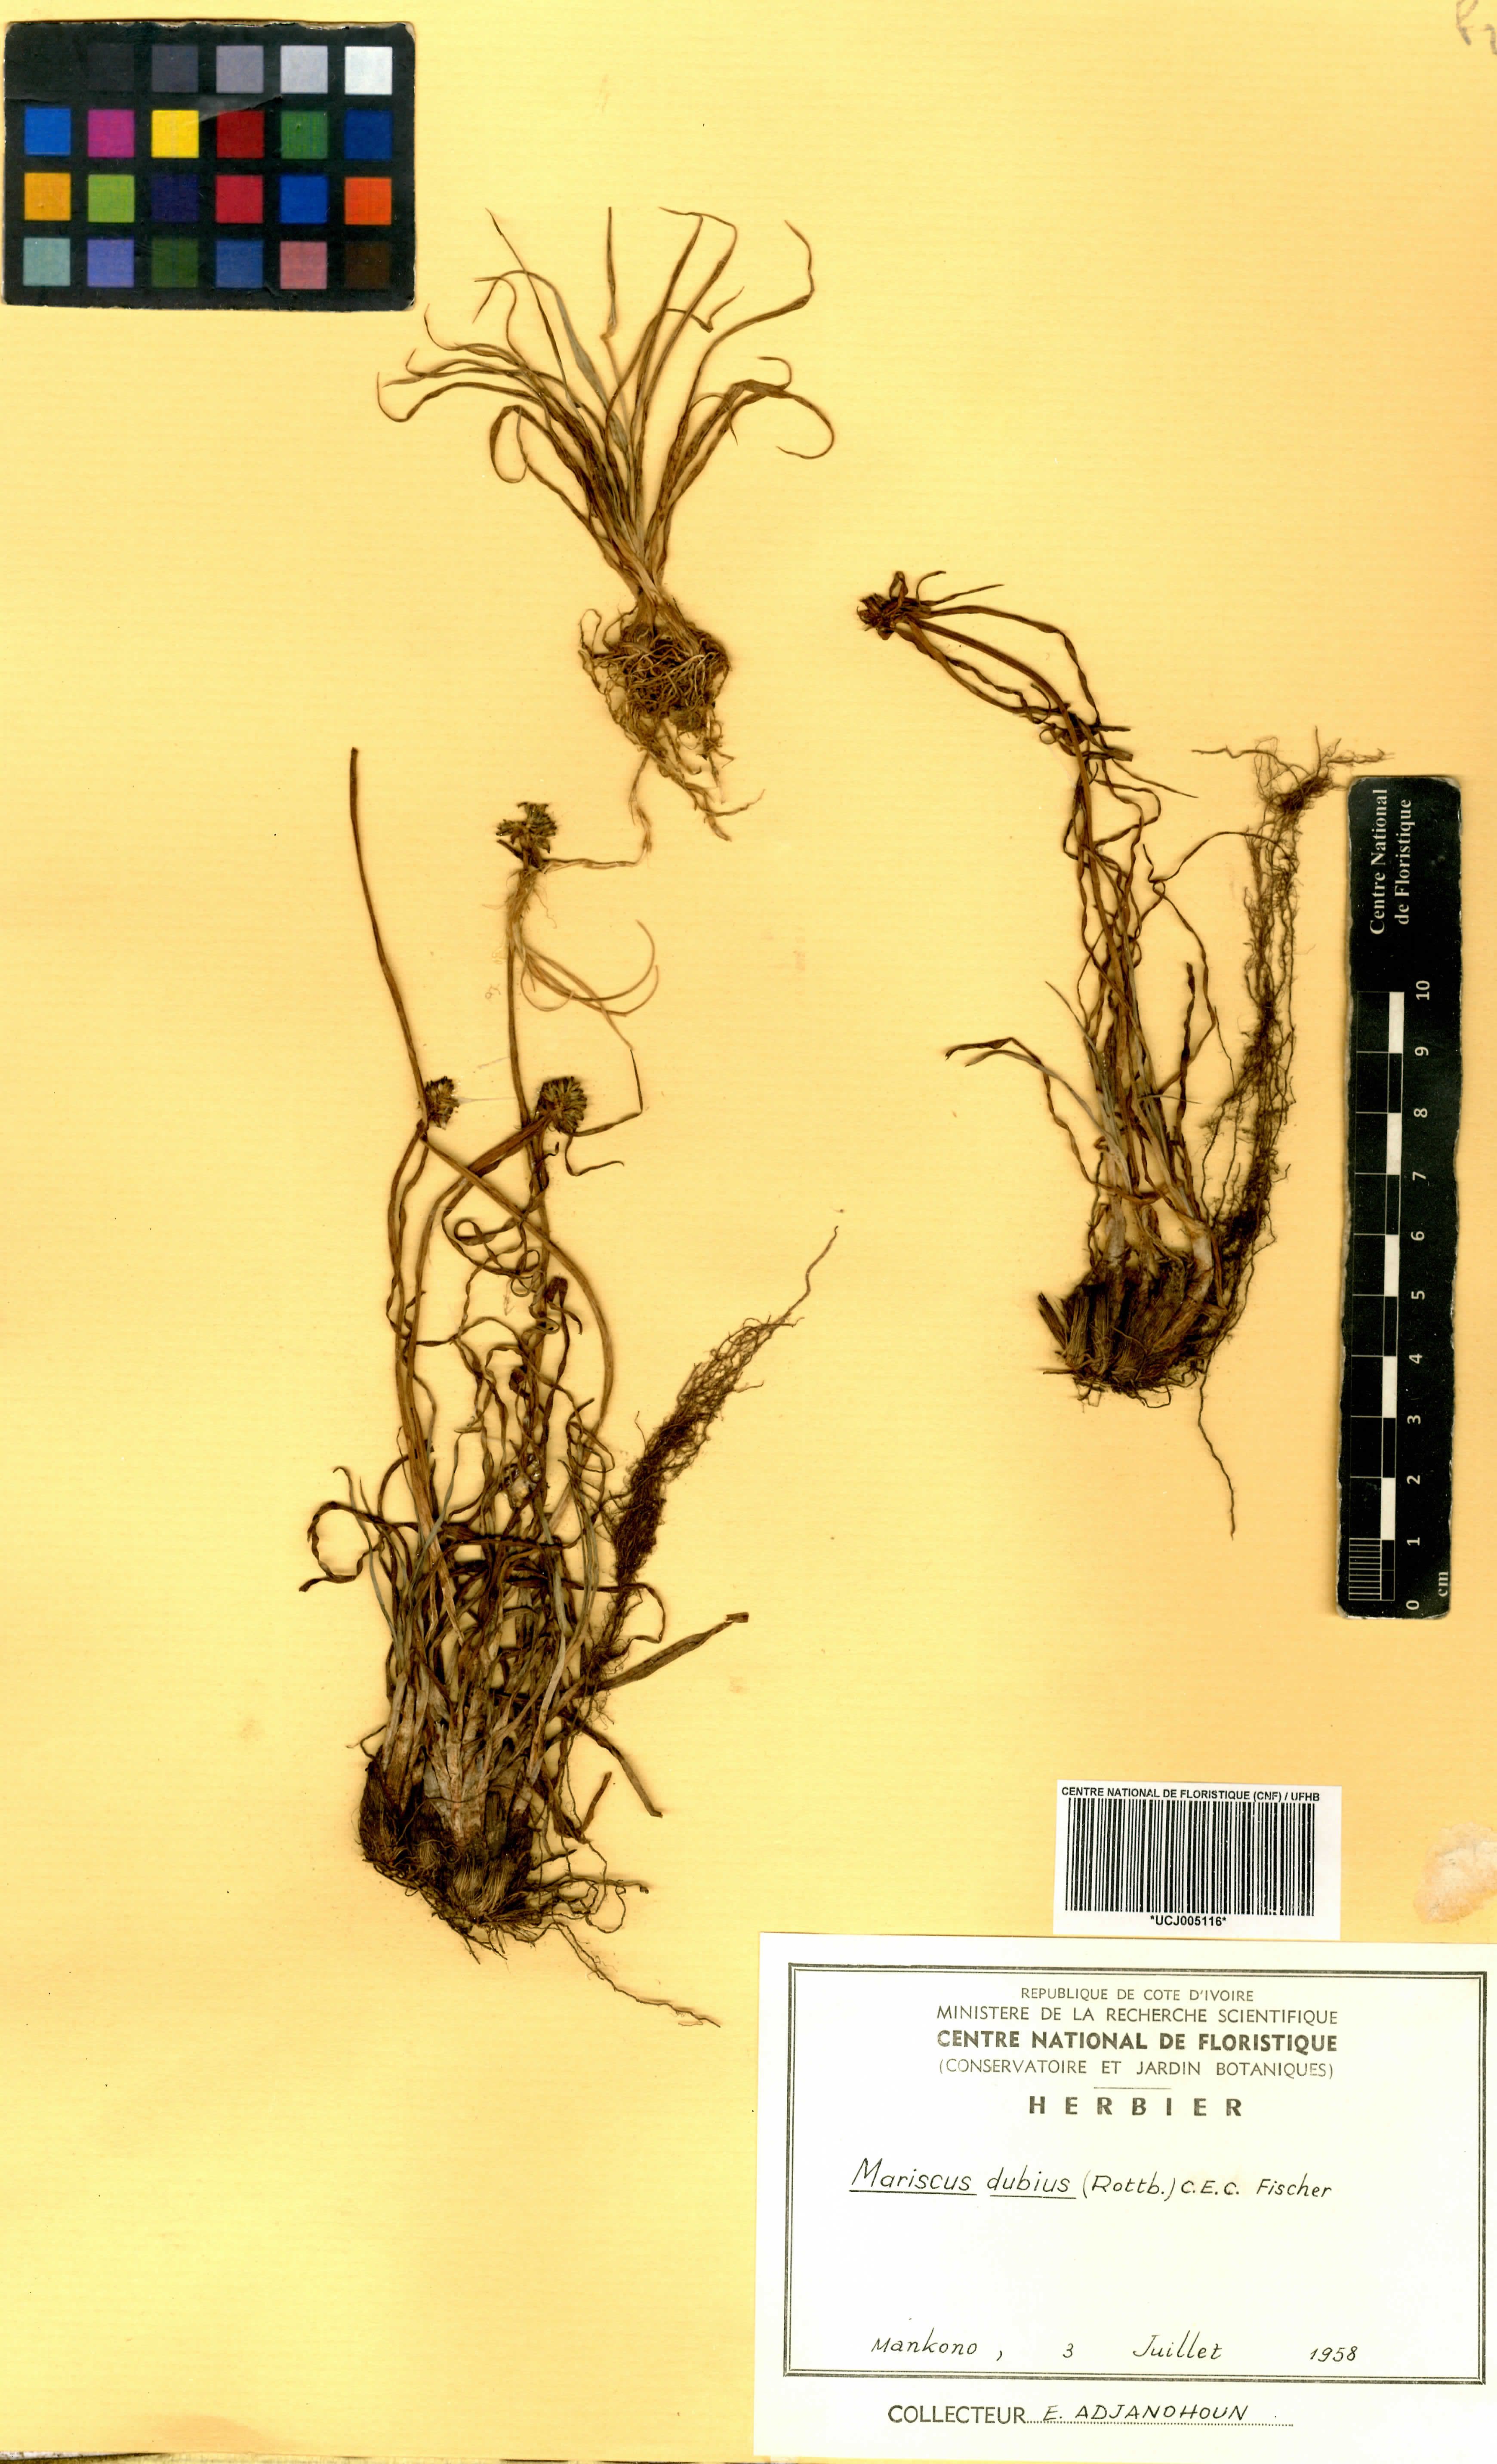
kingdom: Plantae
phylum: Tracheophyta
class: Liliopsida
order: Poales
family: Cyperaceae
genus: Cyperus
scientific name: Cyperus dubius
